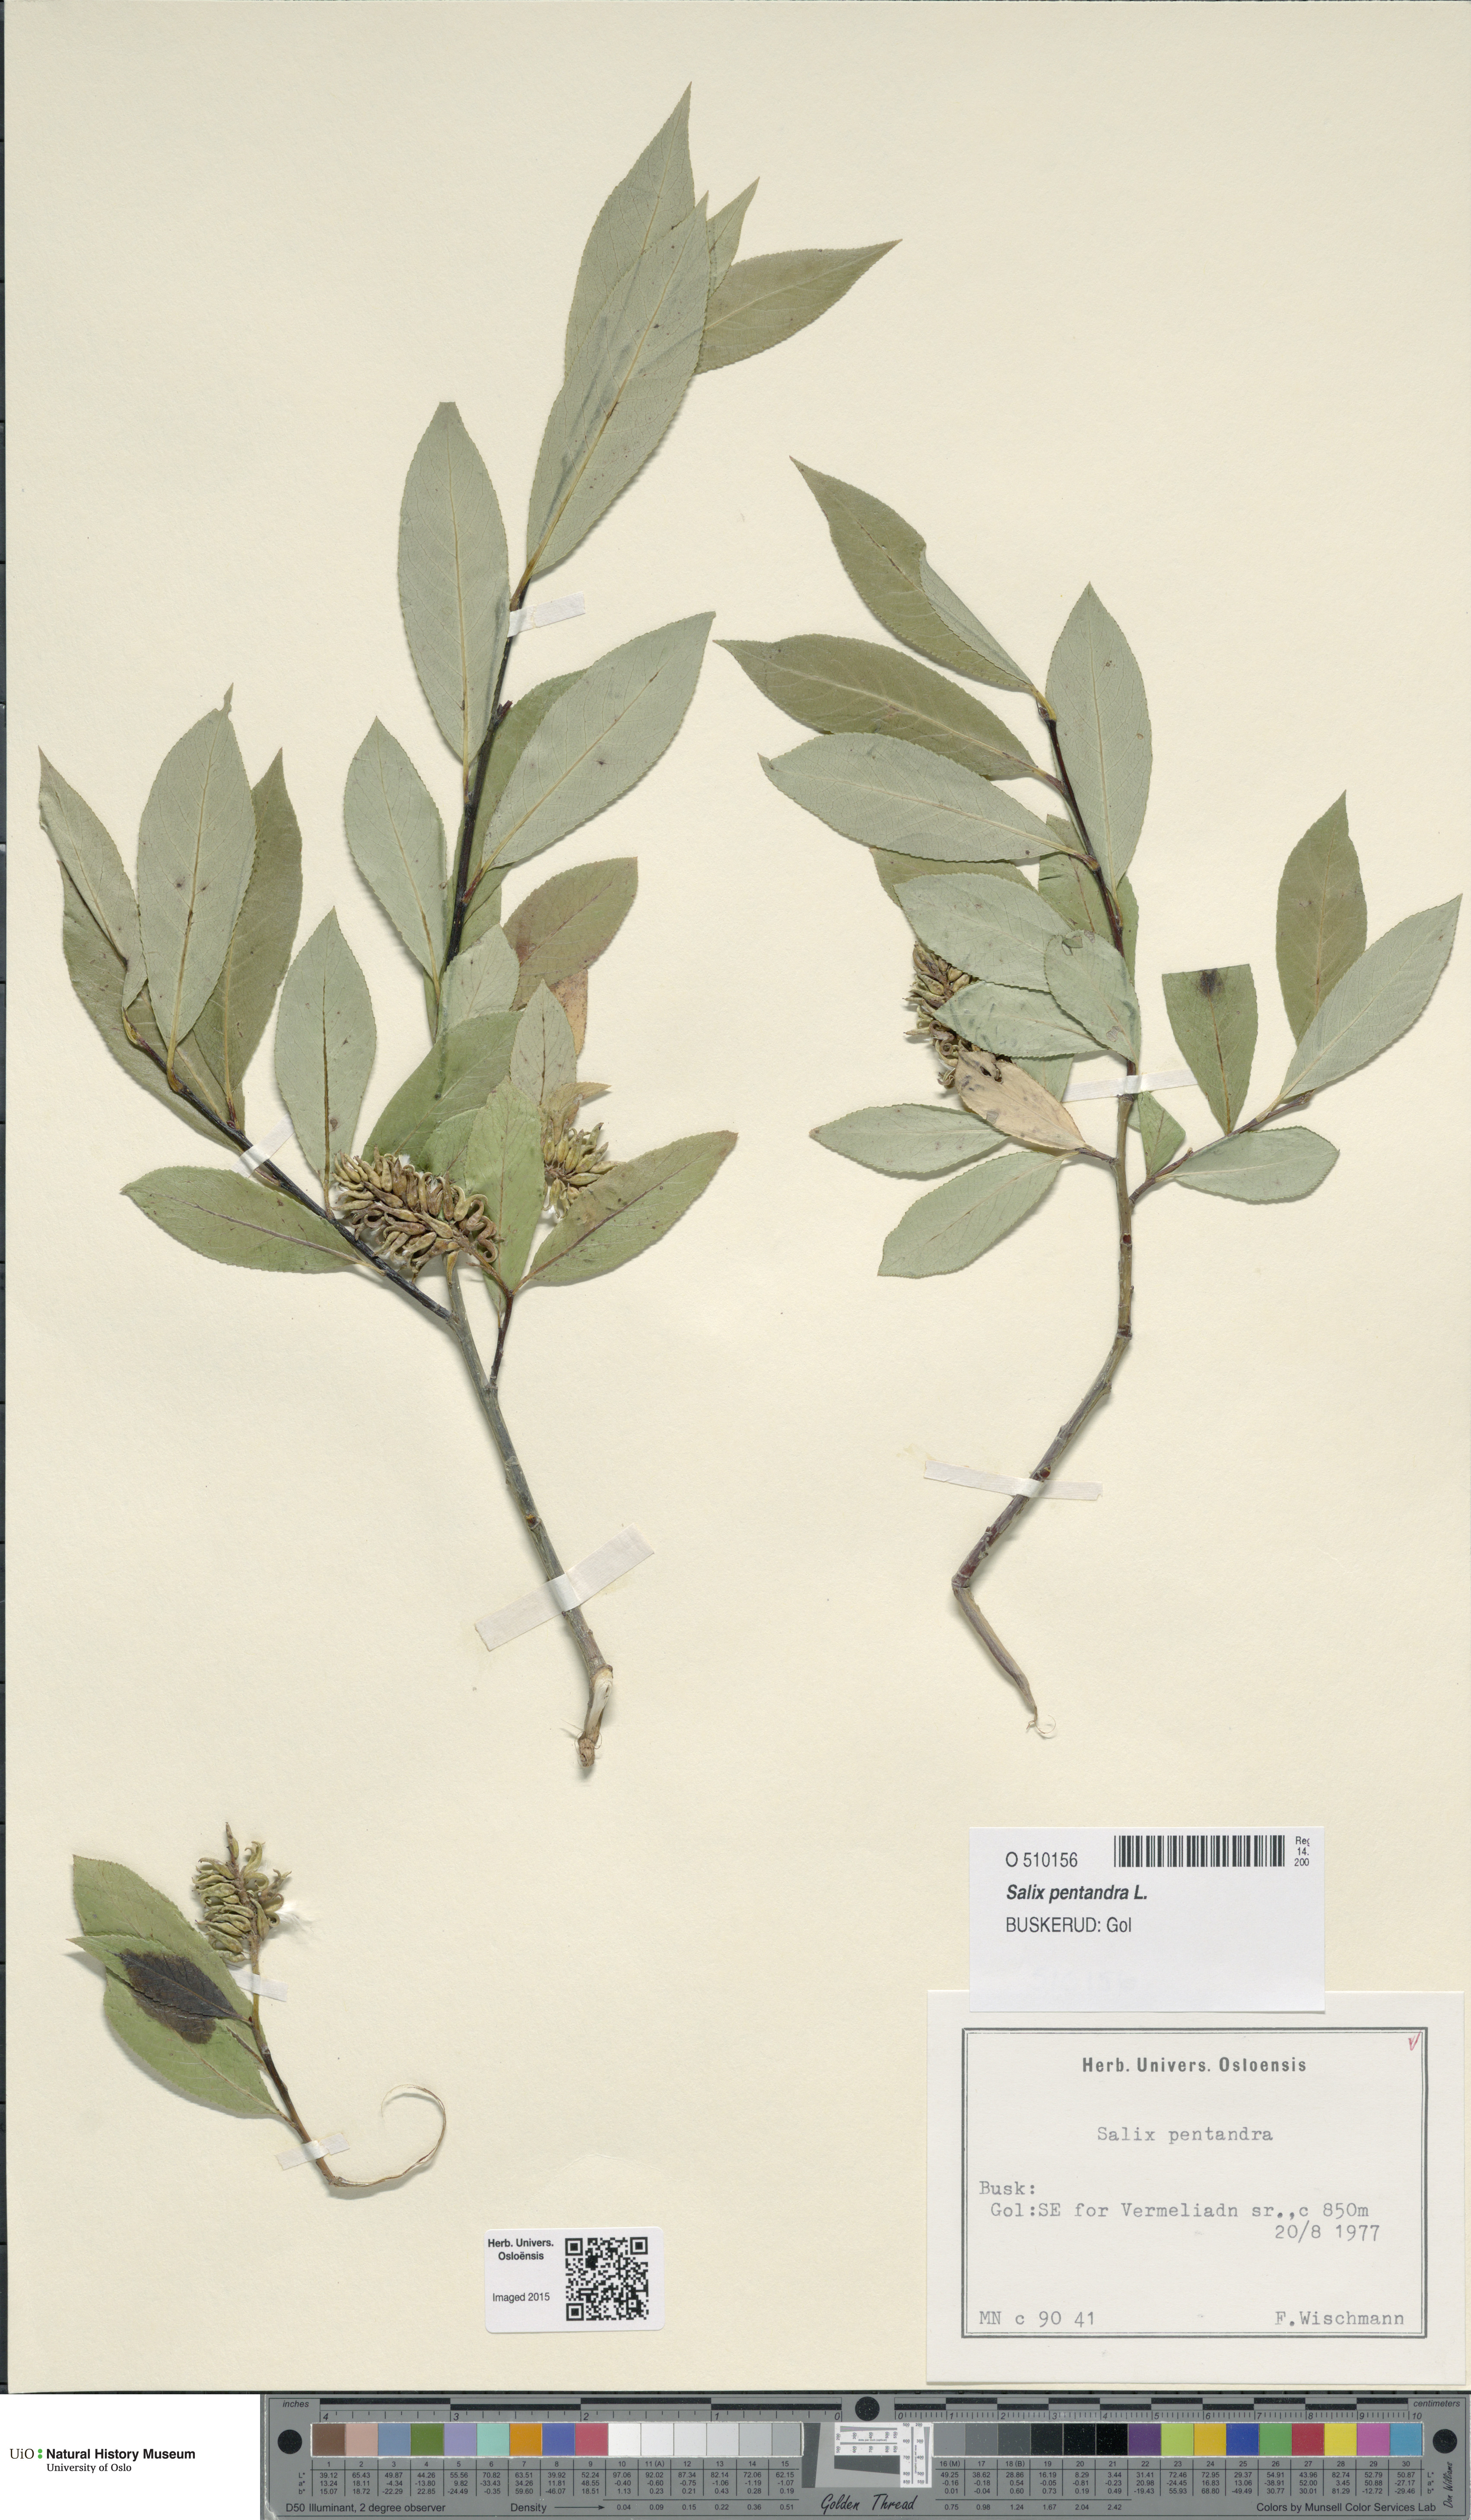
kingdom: Plantae
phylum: Tracheophyta
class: Magnoliopsida
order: Malpighiales
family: Salicaceae
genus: Salix
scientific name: Salix pentandra
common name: Bay willow
